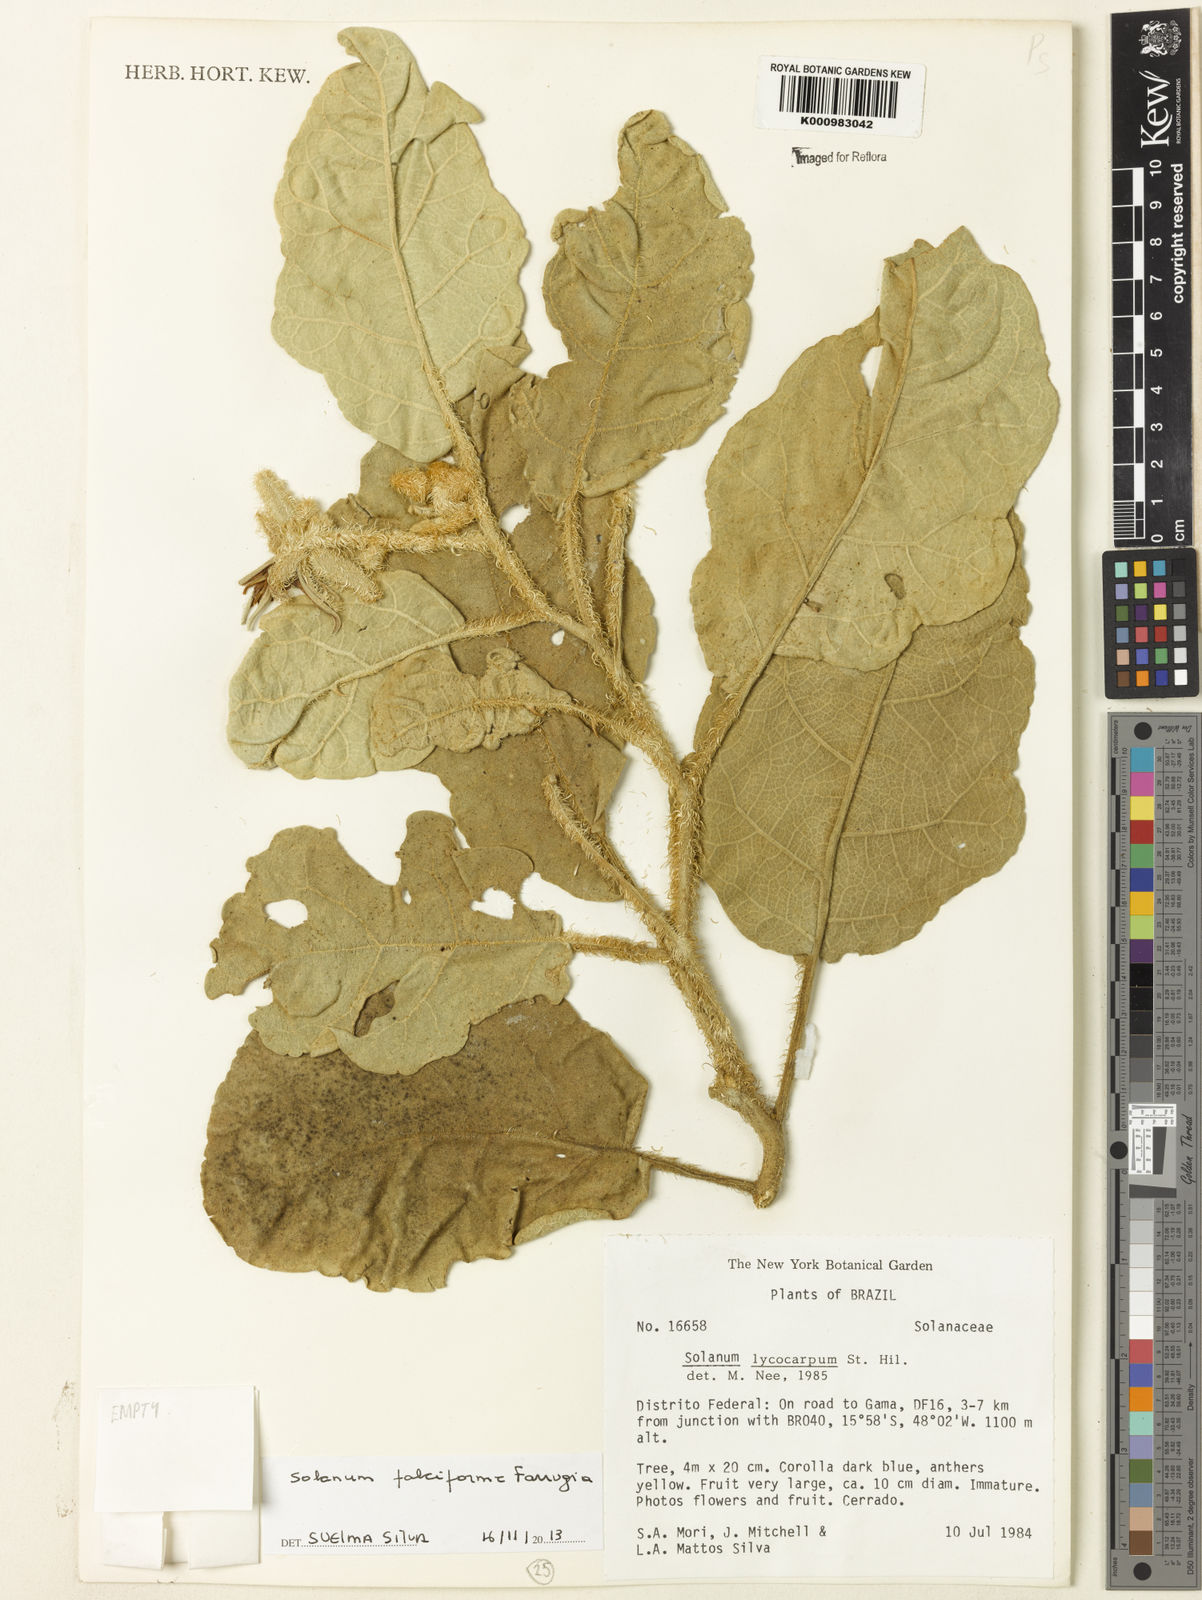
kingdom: Plantae
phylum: Tracheophyta
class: Magnoliopsida
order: Solanales
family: Solanaceae
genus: Solanum
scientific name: Solanum falciforme
